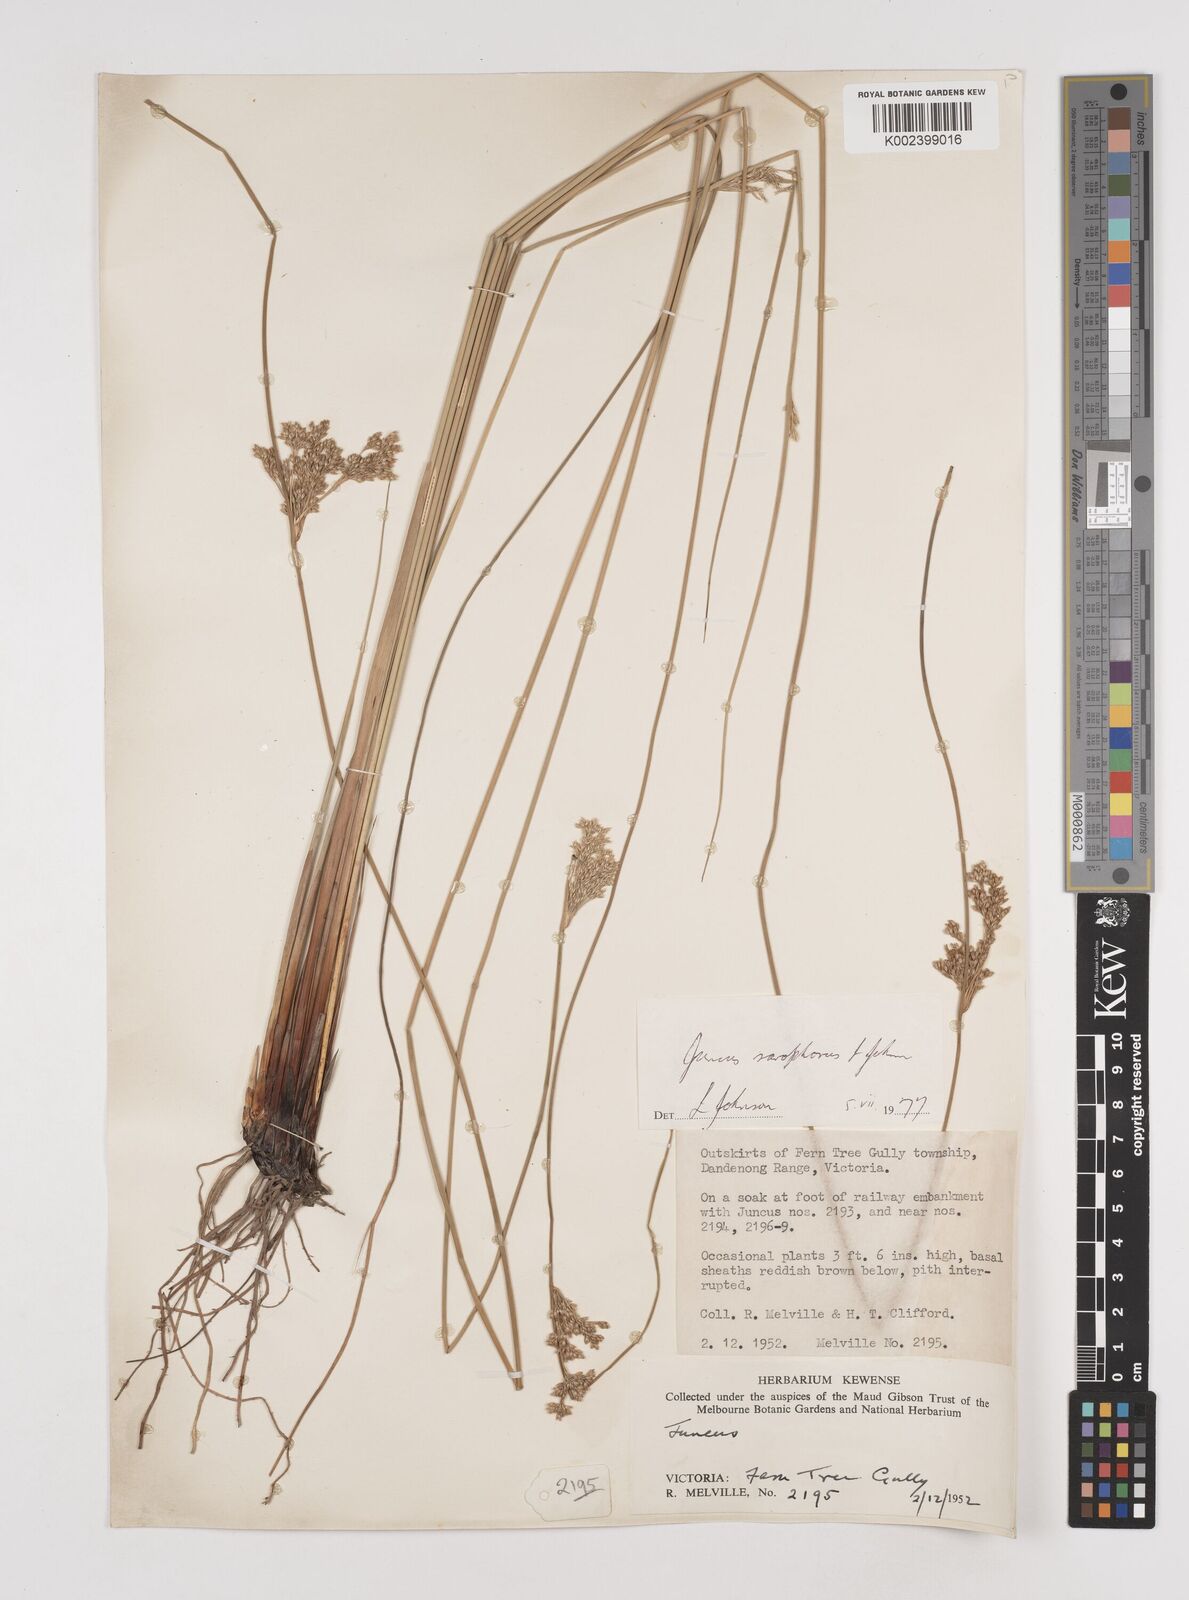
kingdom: Plantae
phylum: Tracheophyta
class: Liliopsida
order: Poales
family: Juncaceae
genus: Juncus
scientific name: Juncus sarophorus
